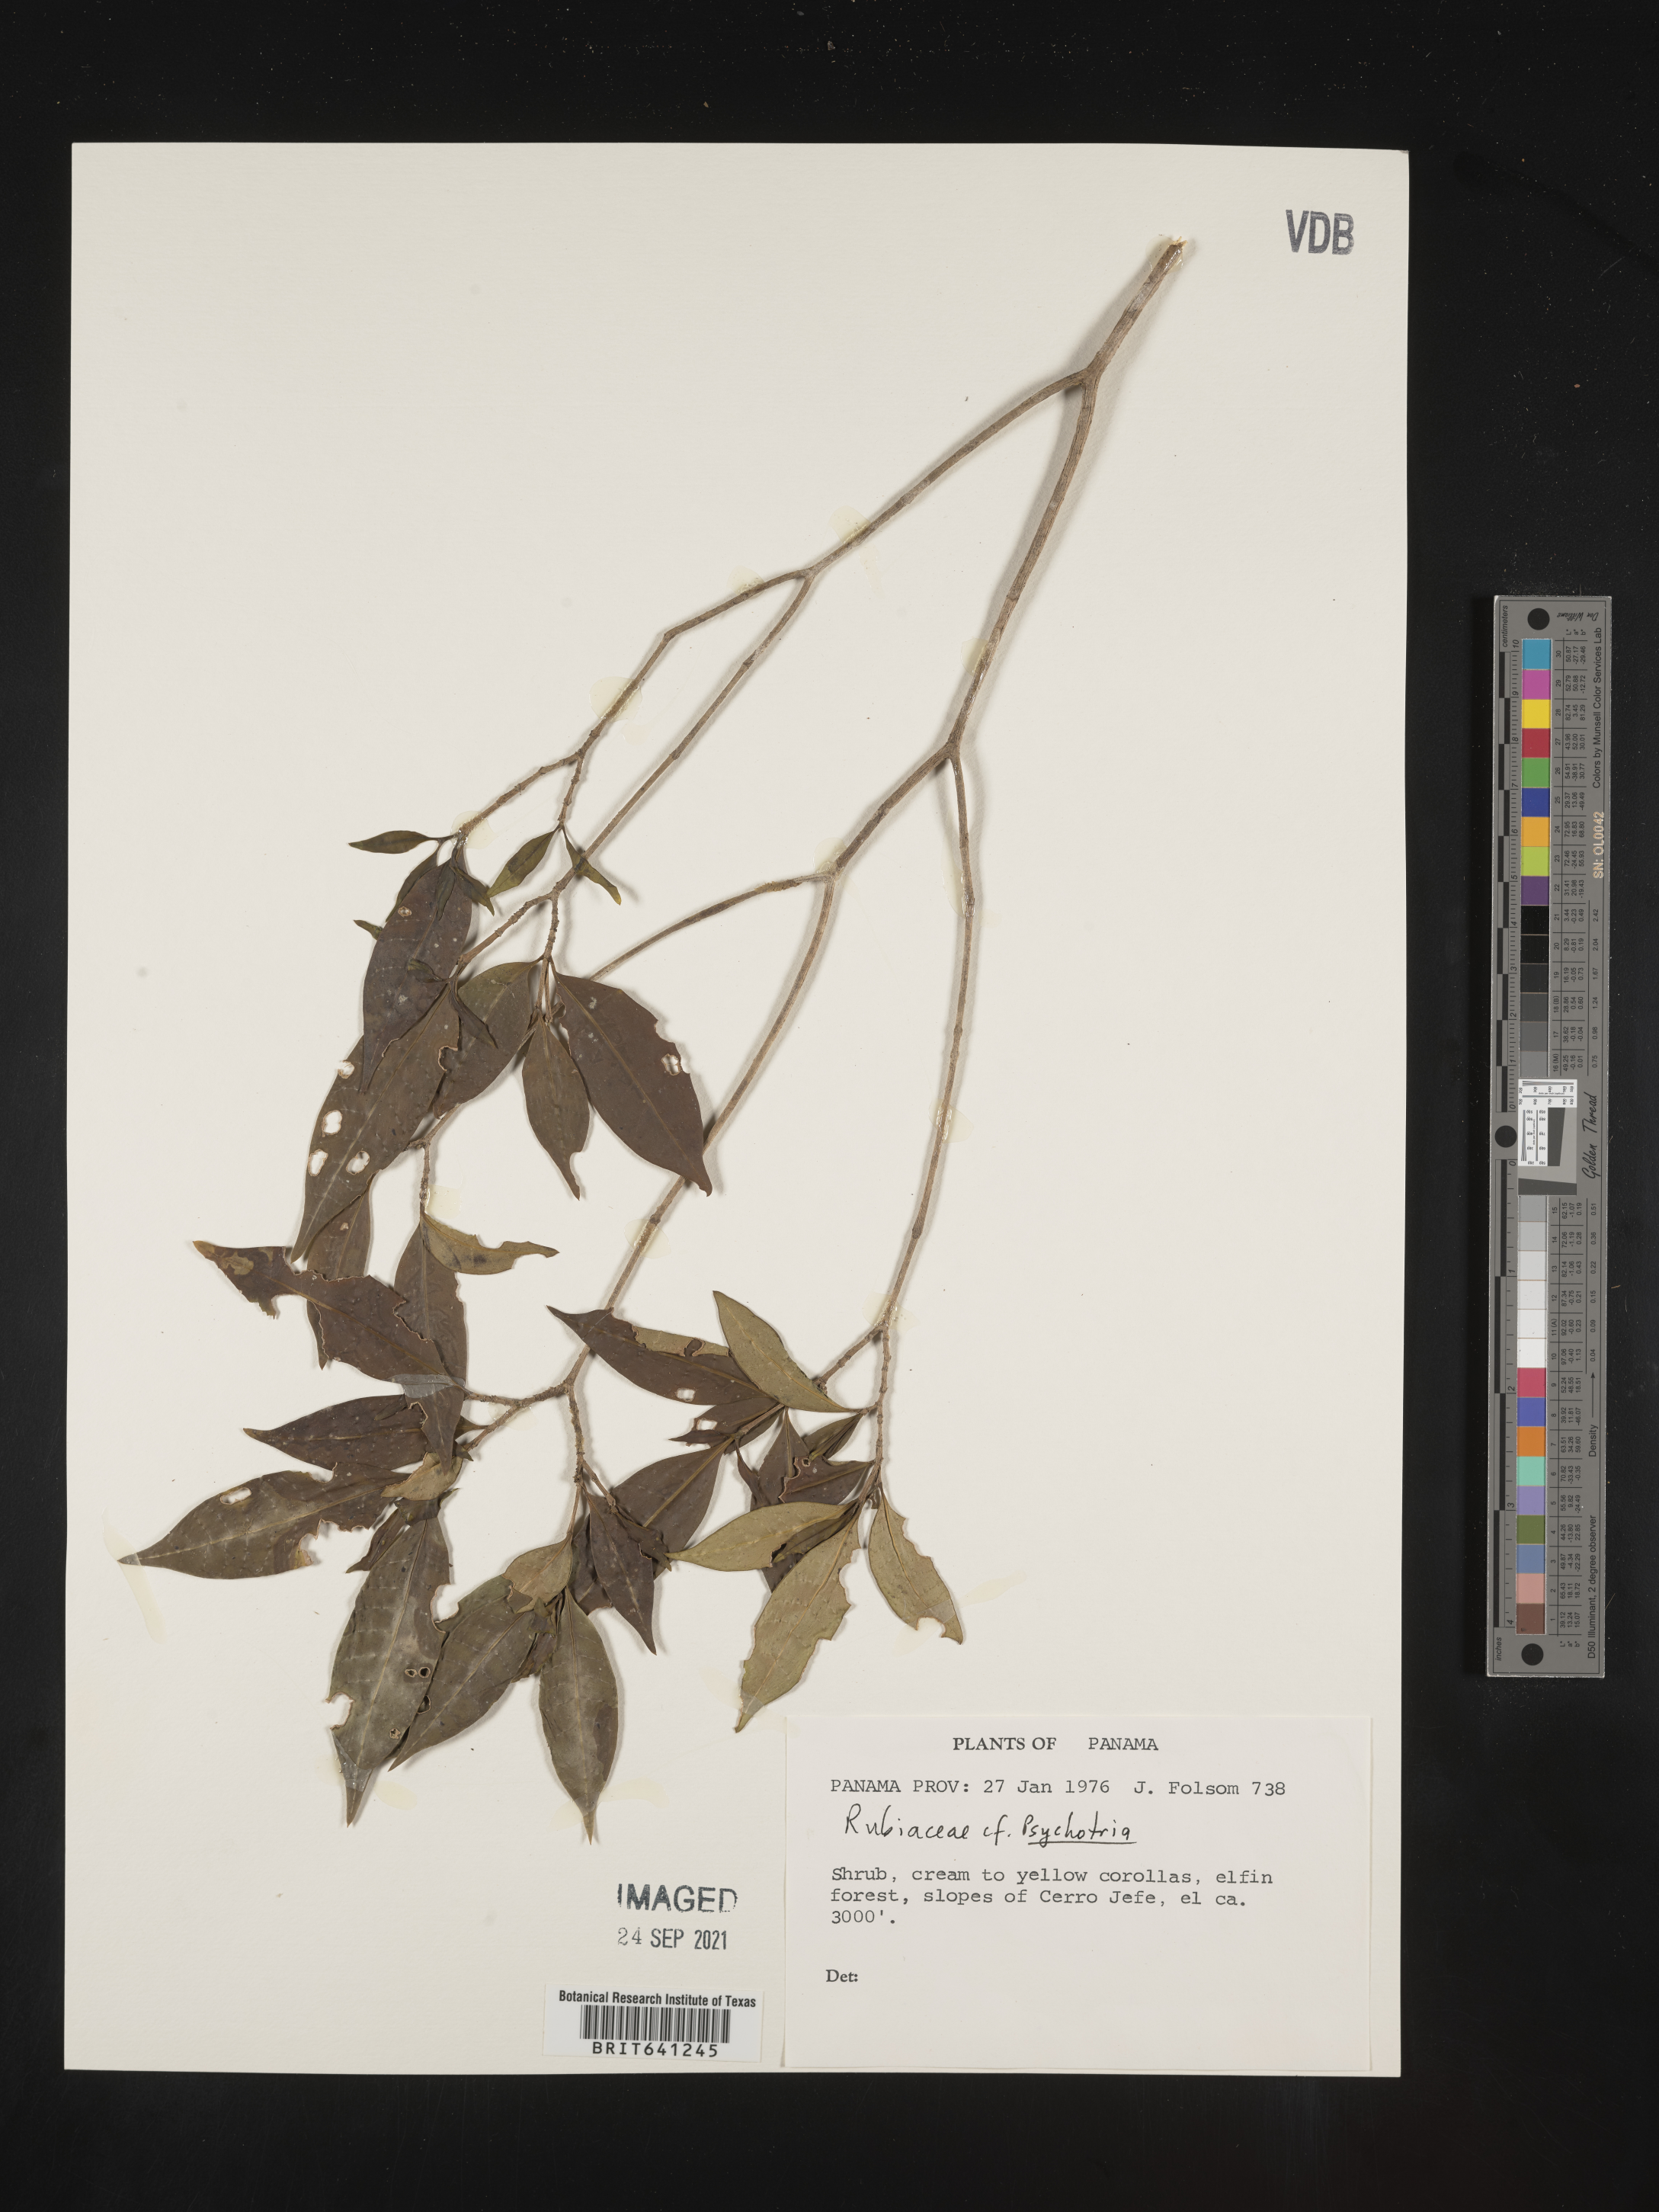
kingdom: Plantae
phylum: Tracheophyta
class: Magnoliopsida
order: Gentianales
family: Rubiaceae
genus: Psychotria
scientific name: Psychotria
